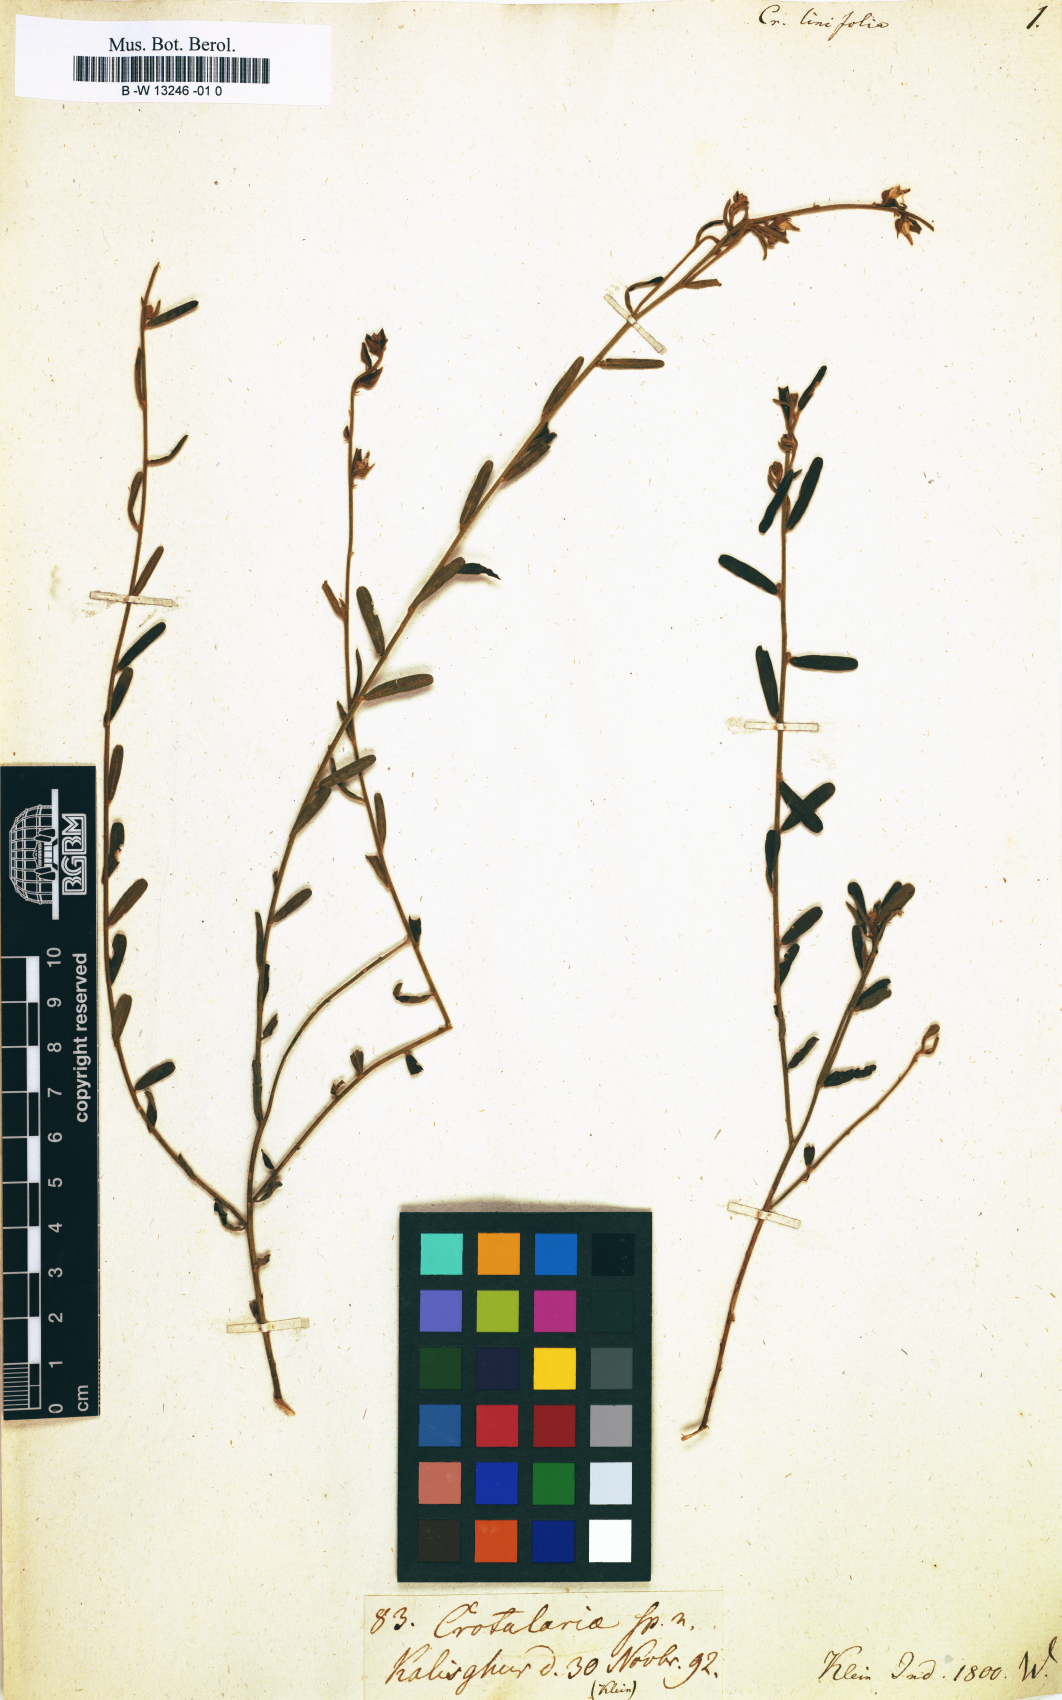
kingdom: Plantae
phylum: Tracheophyta
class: Magnoliopsida
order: Fabales
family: Fabaceae
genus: Crotalaria
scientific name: Crotalaria linifolia
